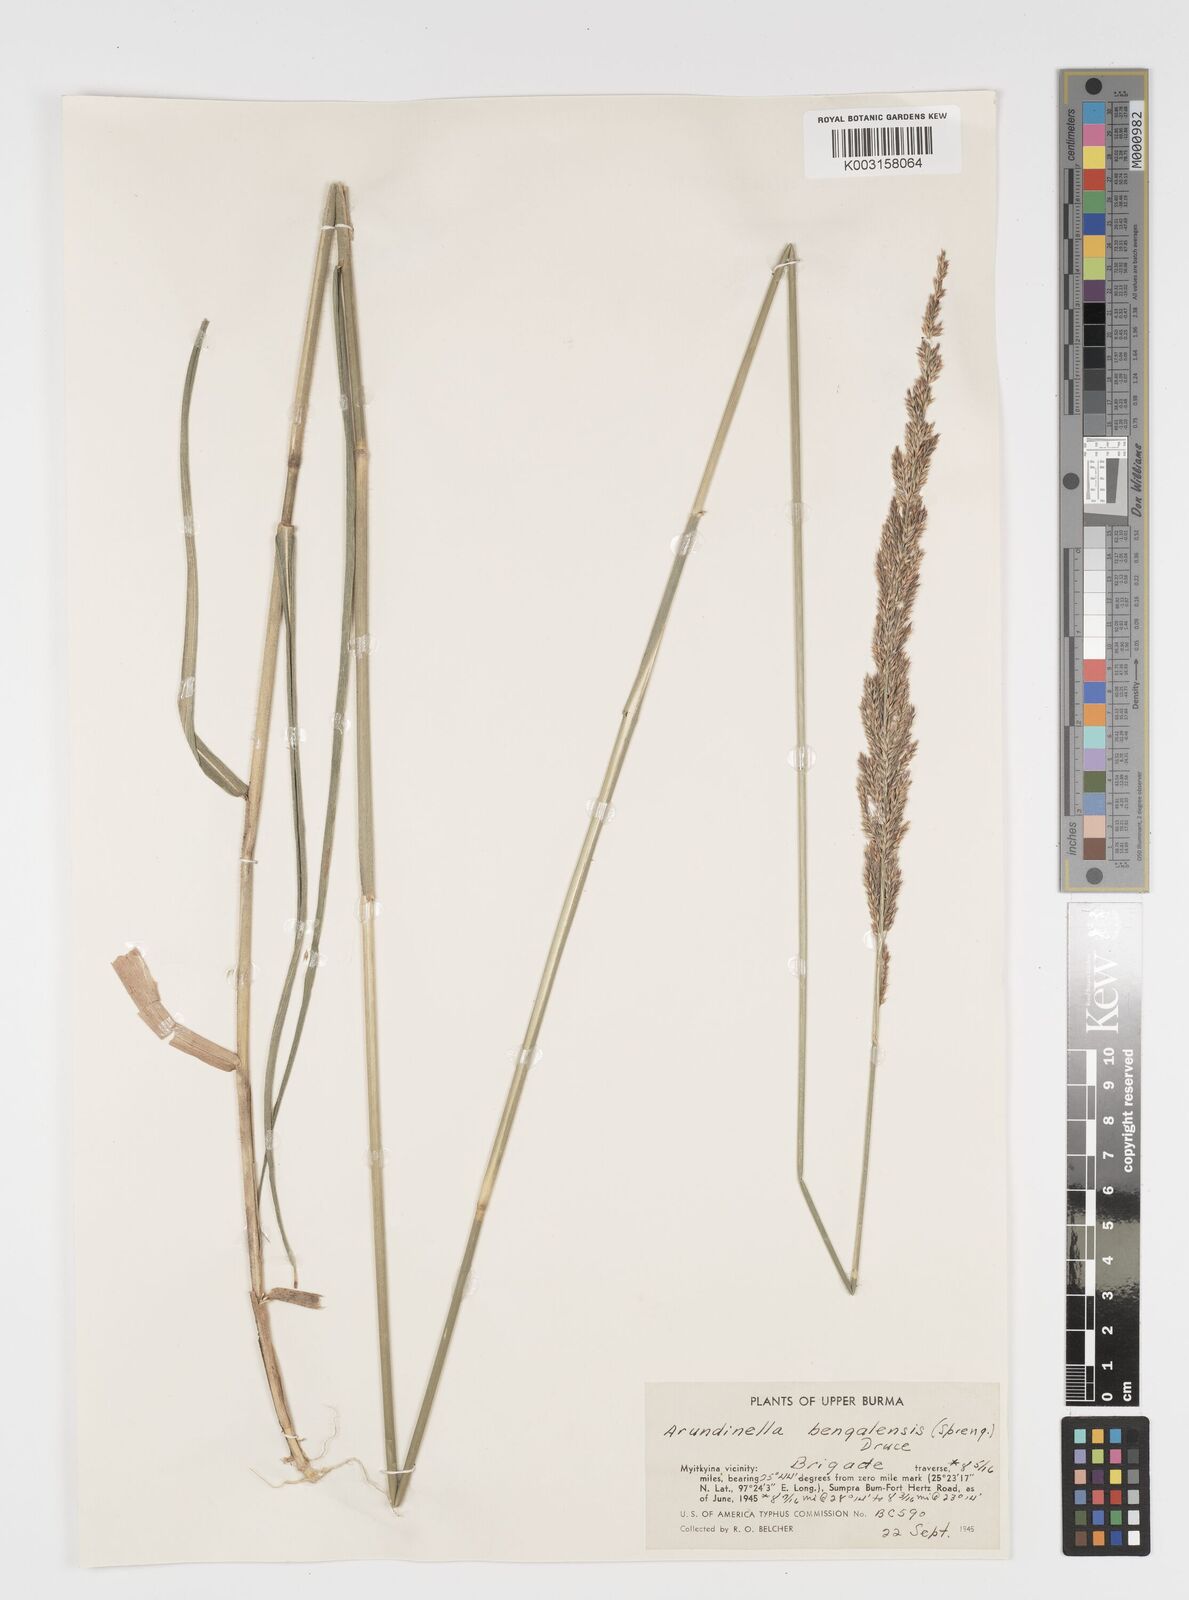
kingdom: Plantae
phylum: Tracheophyta
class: Liliopsida
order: Poales
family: Poaceae
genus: Arundinella
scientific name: Arundinella bengalensis
